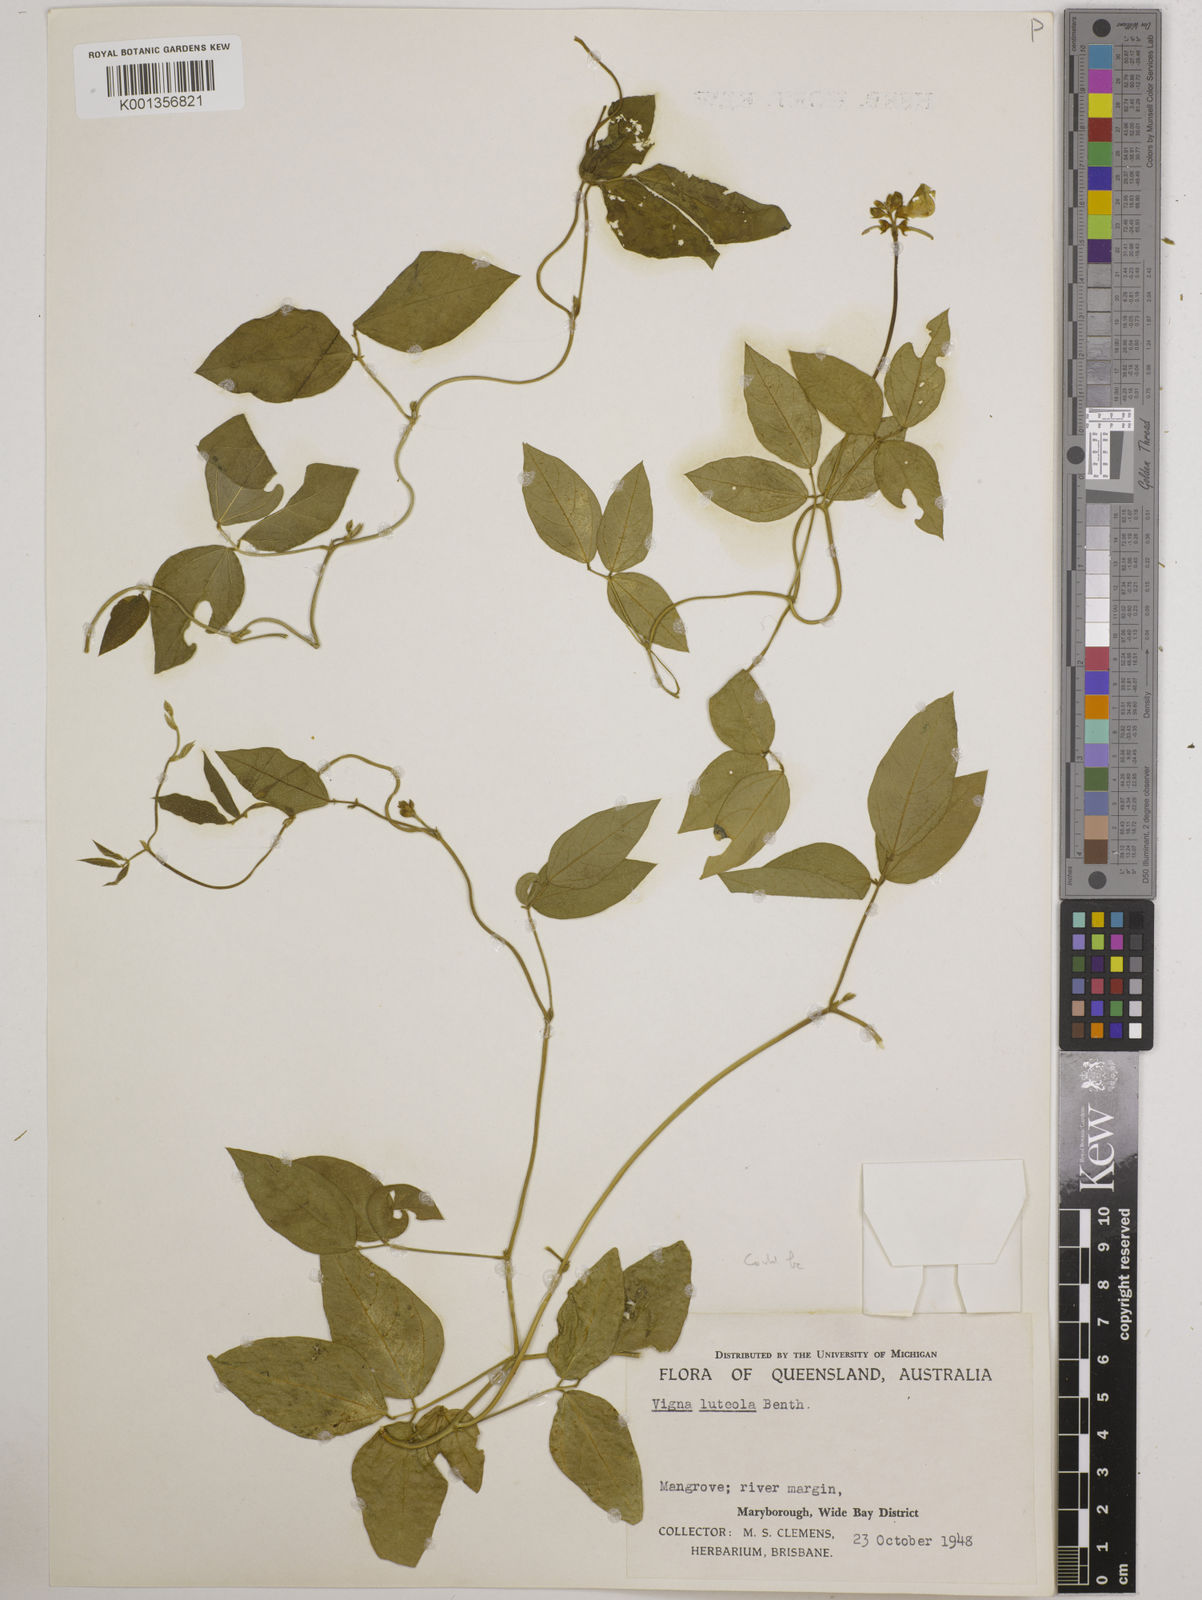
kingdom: Plantae
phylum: Tracheophyta
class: Magnoliopsida
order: Fabales
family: Fabaceae
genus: Vigna
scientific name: Vigna luteola
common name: Hairypod cowpea
